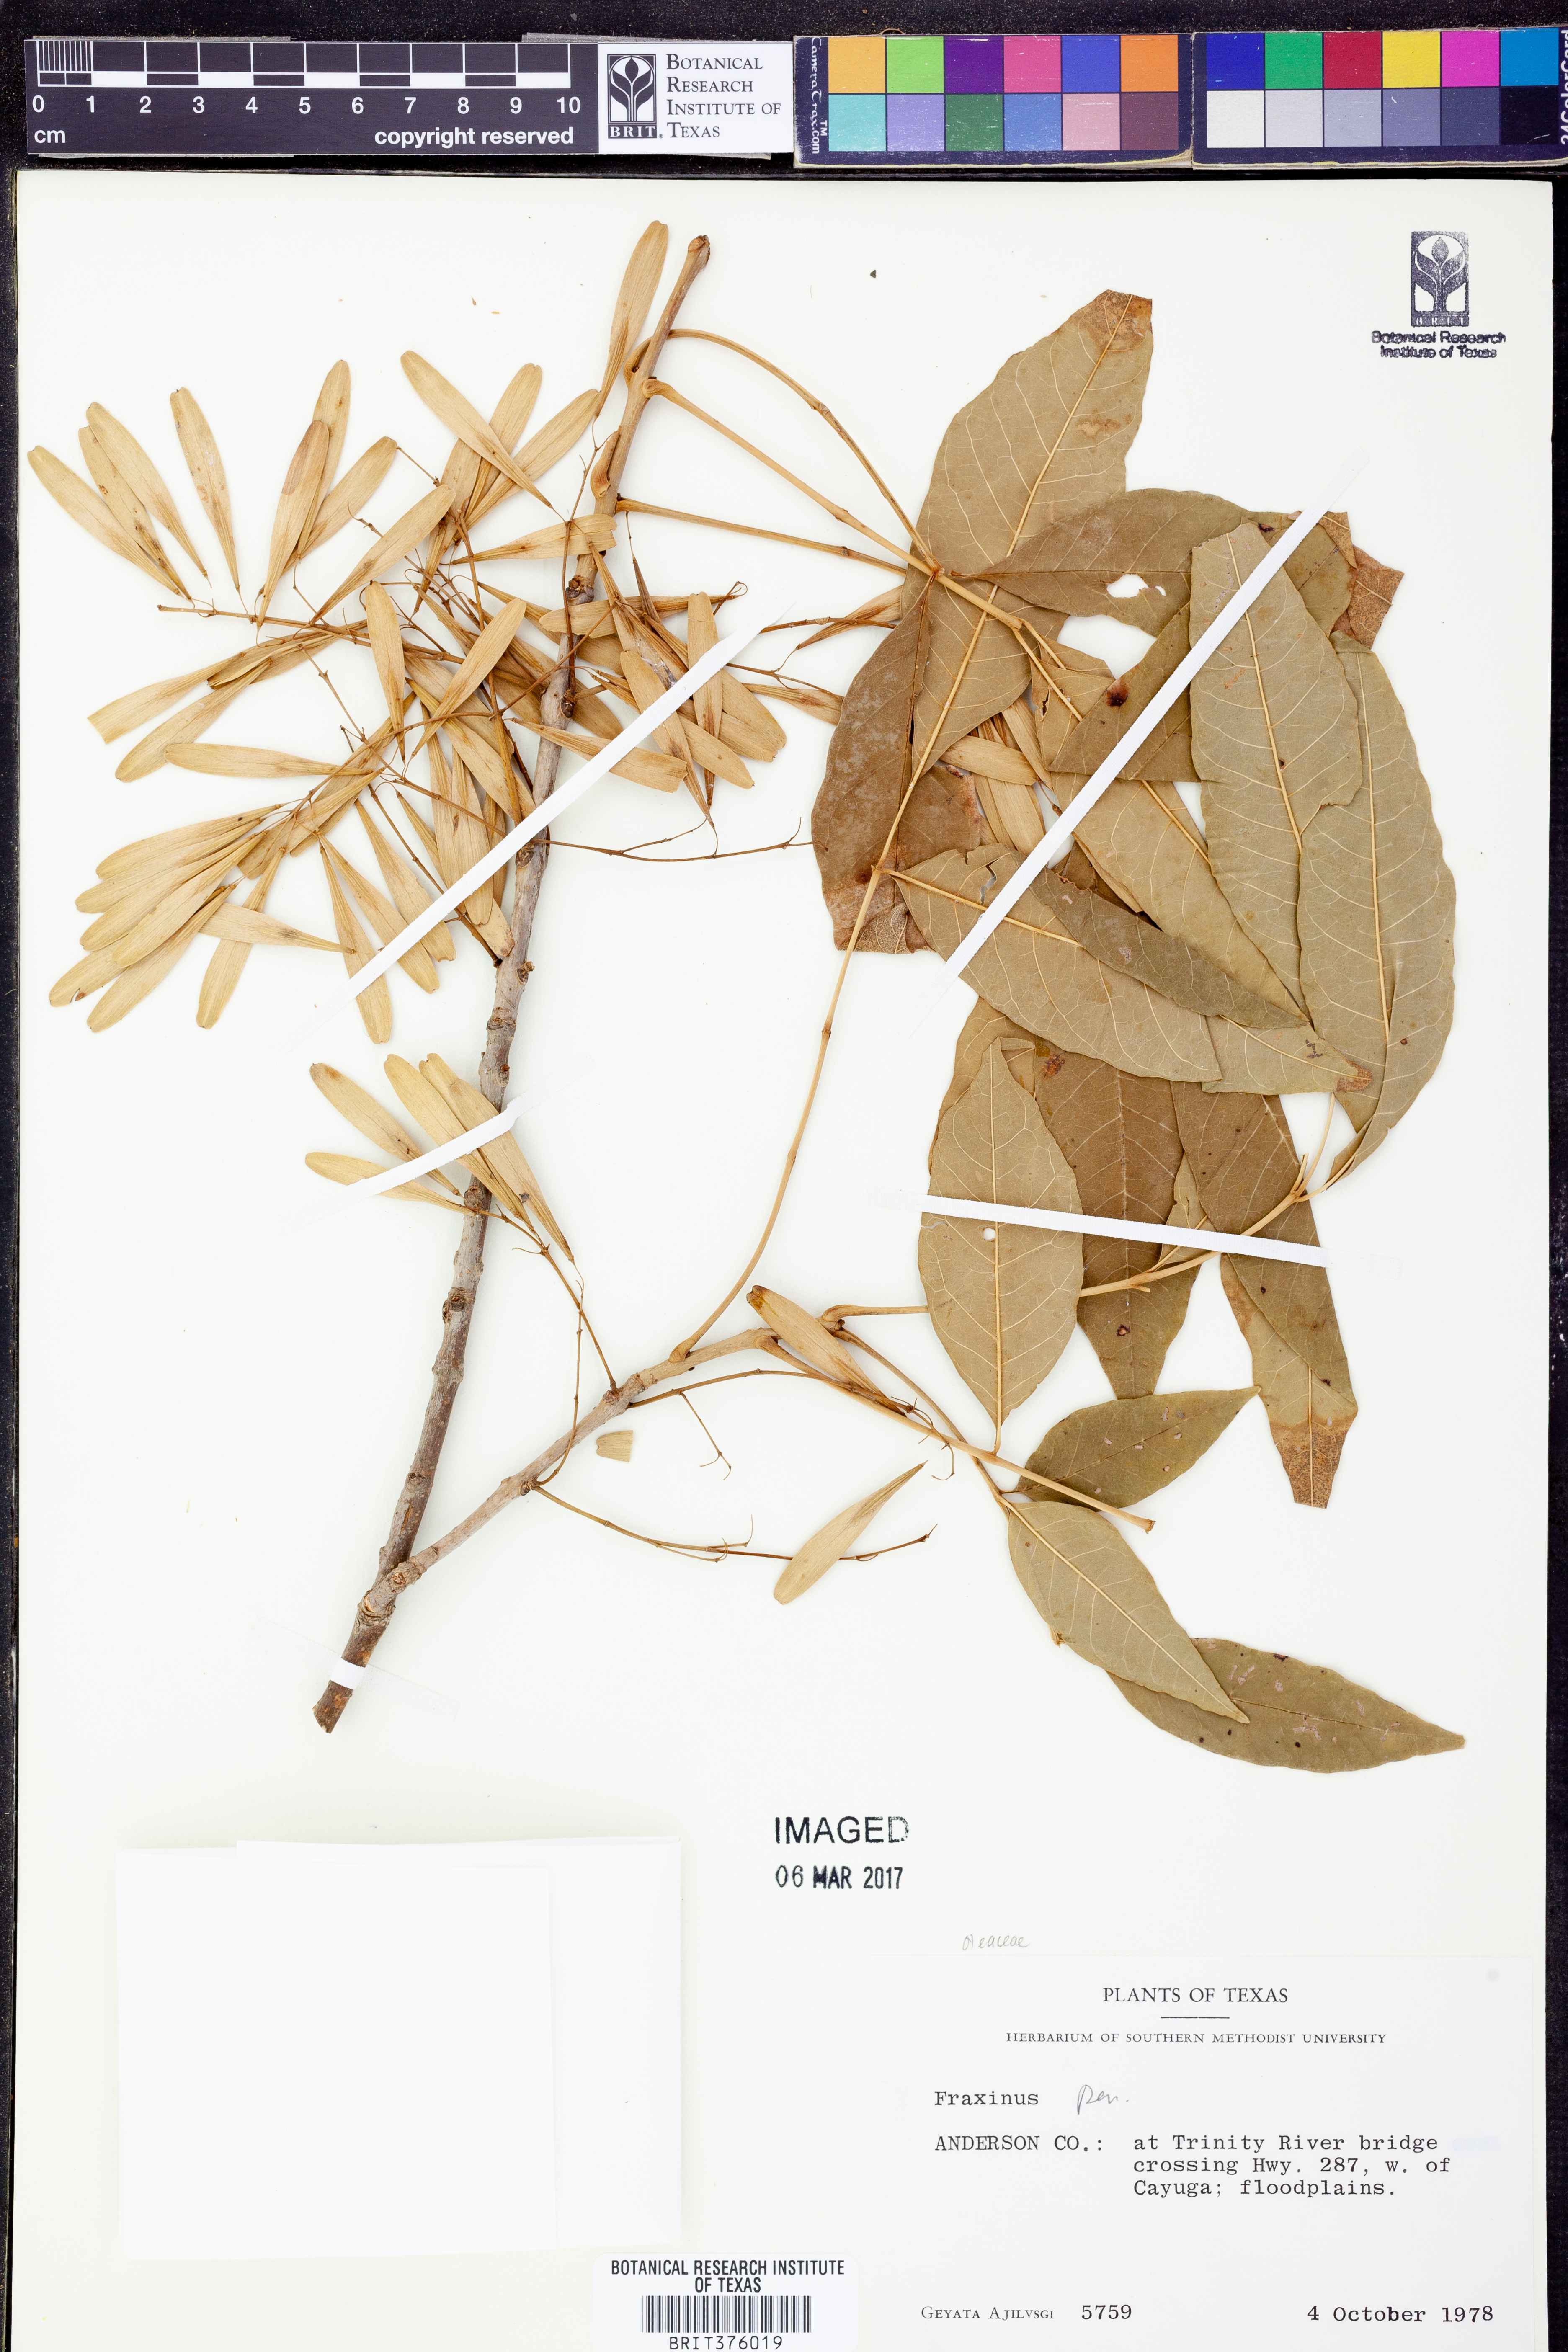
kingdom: Plantae
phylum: Tracheophyta
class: Magnoliopsida
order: Lamiales
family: Oleaceae
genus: Fraxinus
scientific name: Fraxinus pennsylvanica
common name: Green ash
